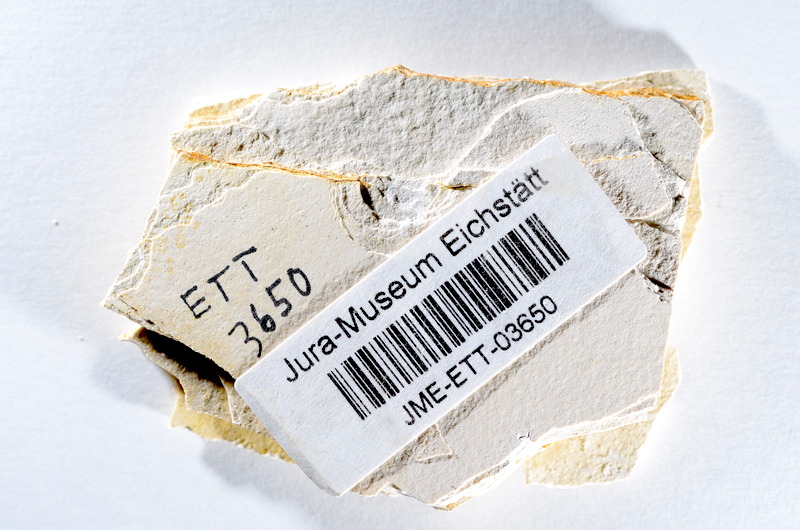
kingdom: Animalia
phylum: Chordata
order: Salmoniformes
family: Orthogonikleithridae
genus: Orthogonikleithrus
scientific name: Orthogonikleithrus hoelli
